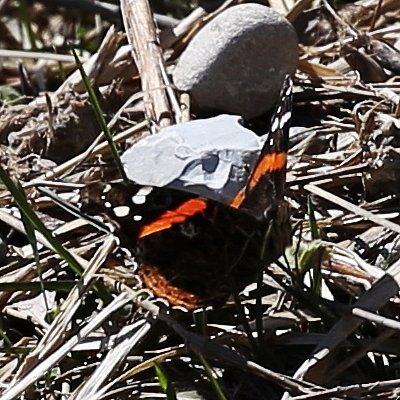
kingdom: Animalia
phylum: Arthropoda
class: Insecta
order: Lepidoptera
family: Nymphalidae
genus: Vanessa
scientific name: Vanessa atalanta
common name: Red Admiral
